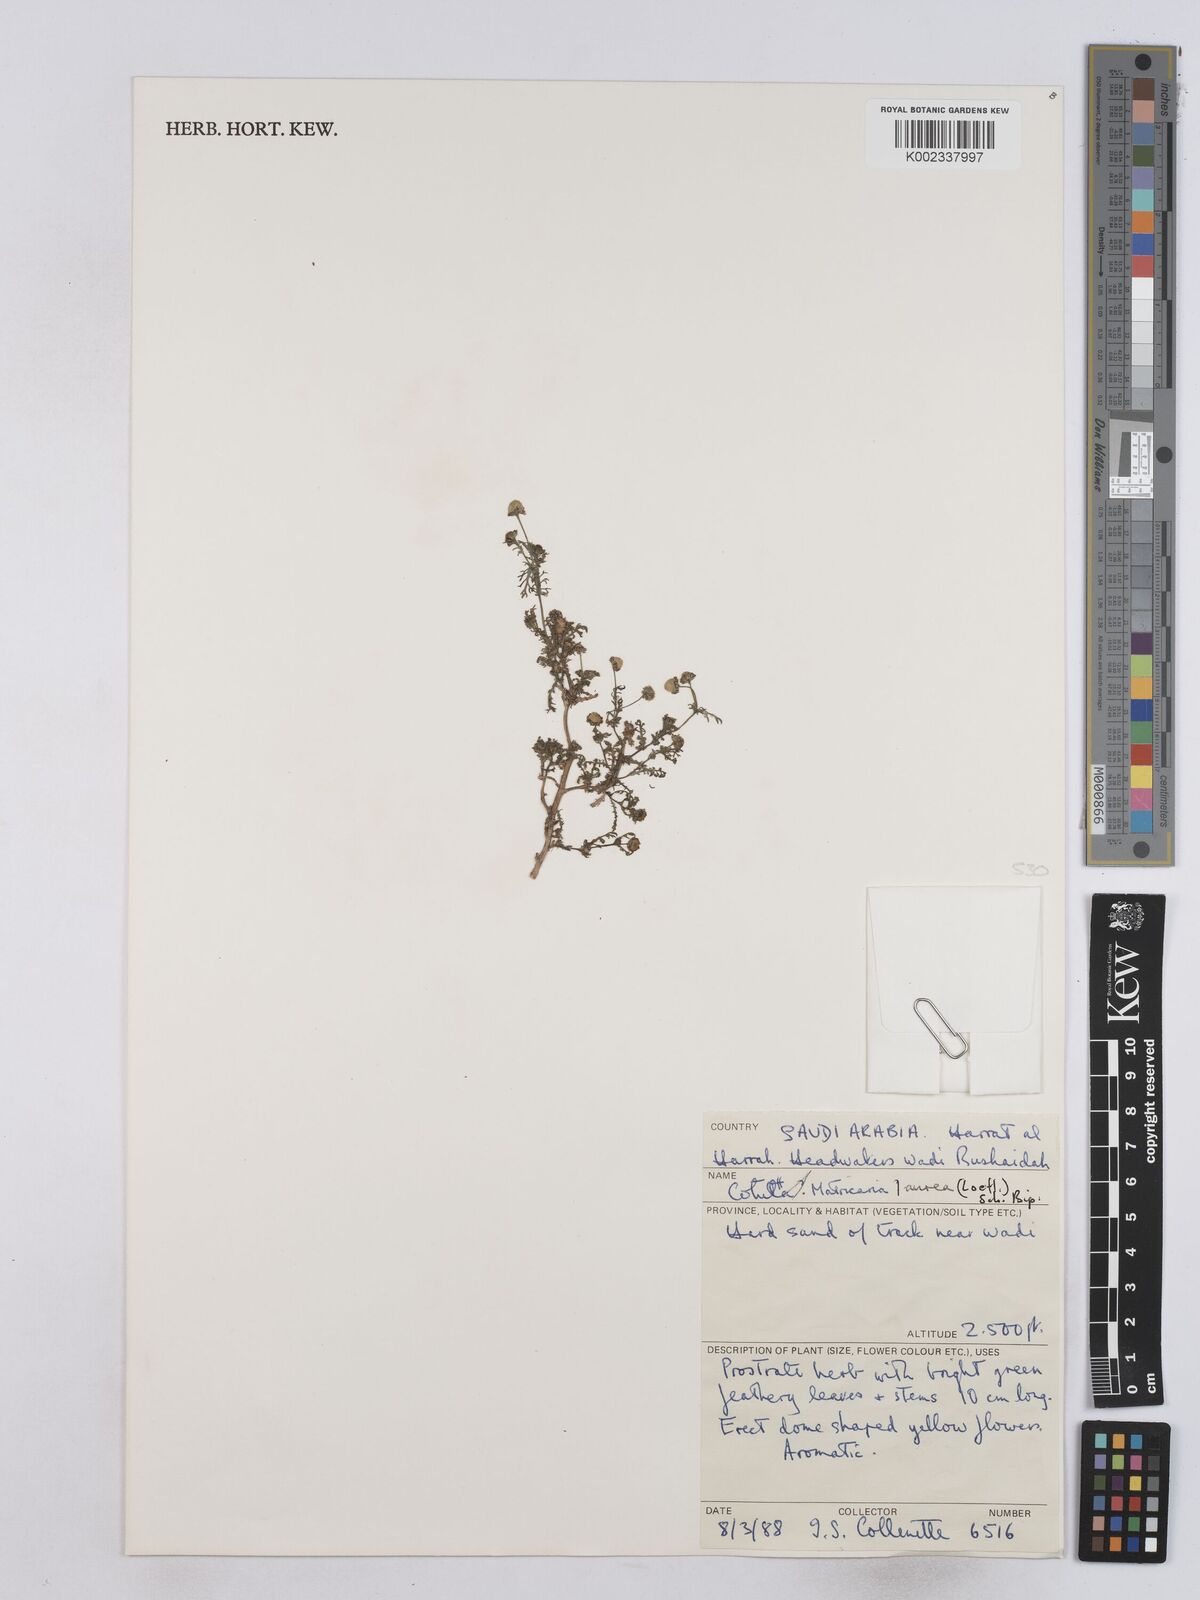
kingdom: Plantae
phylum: Tracheophyta
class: Magnoliopsida
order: Asterales
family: Asteraceae
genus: Matricaria
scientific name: Matricaria aurea
